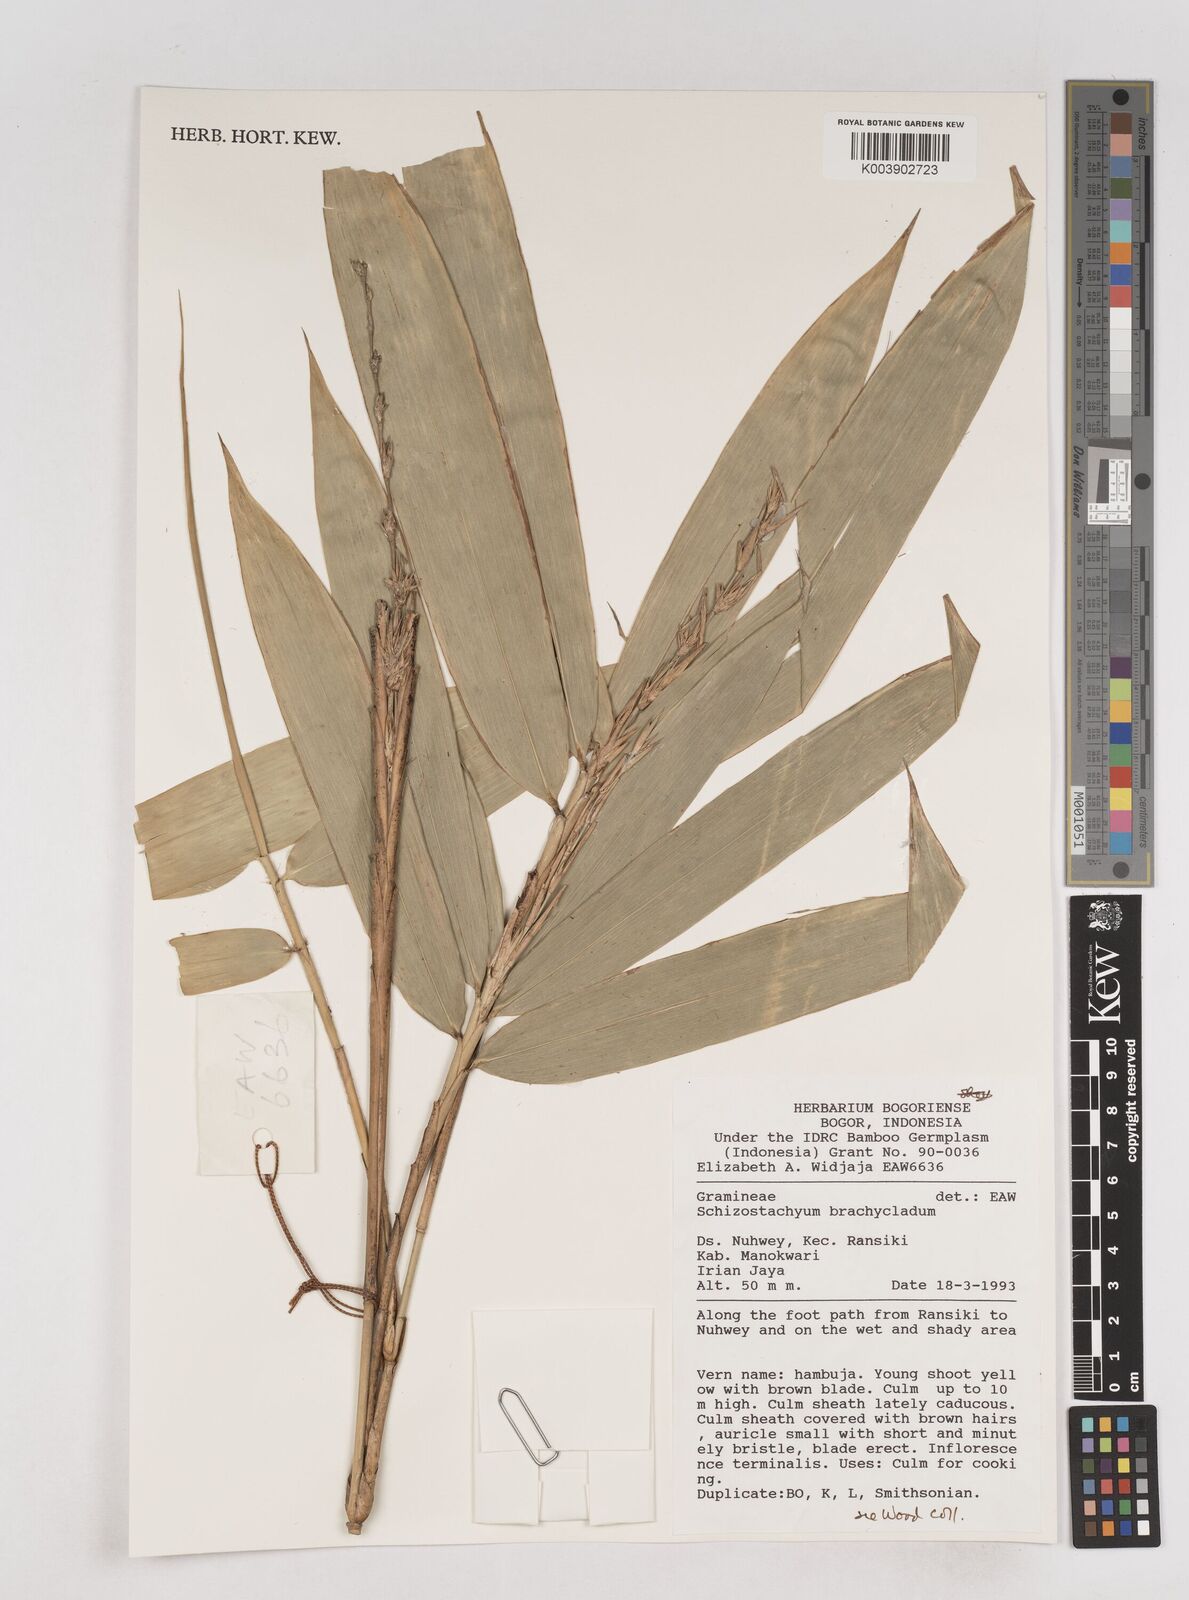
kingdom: Plantae
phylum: Tracheophyta
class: Liliopsida
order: Poales
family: Poaceae
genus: Schizostachyum
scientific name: Schizostachyum brachycladum
